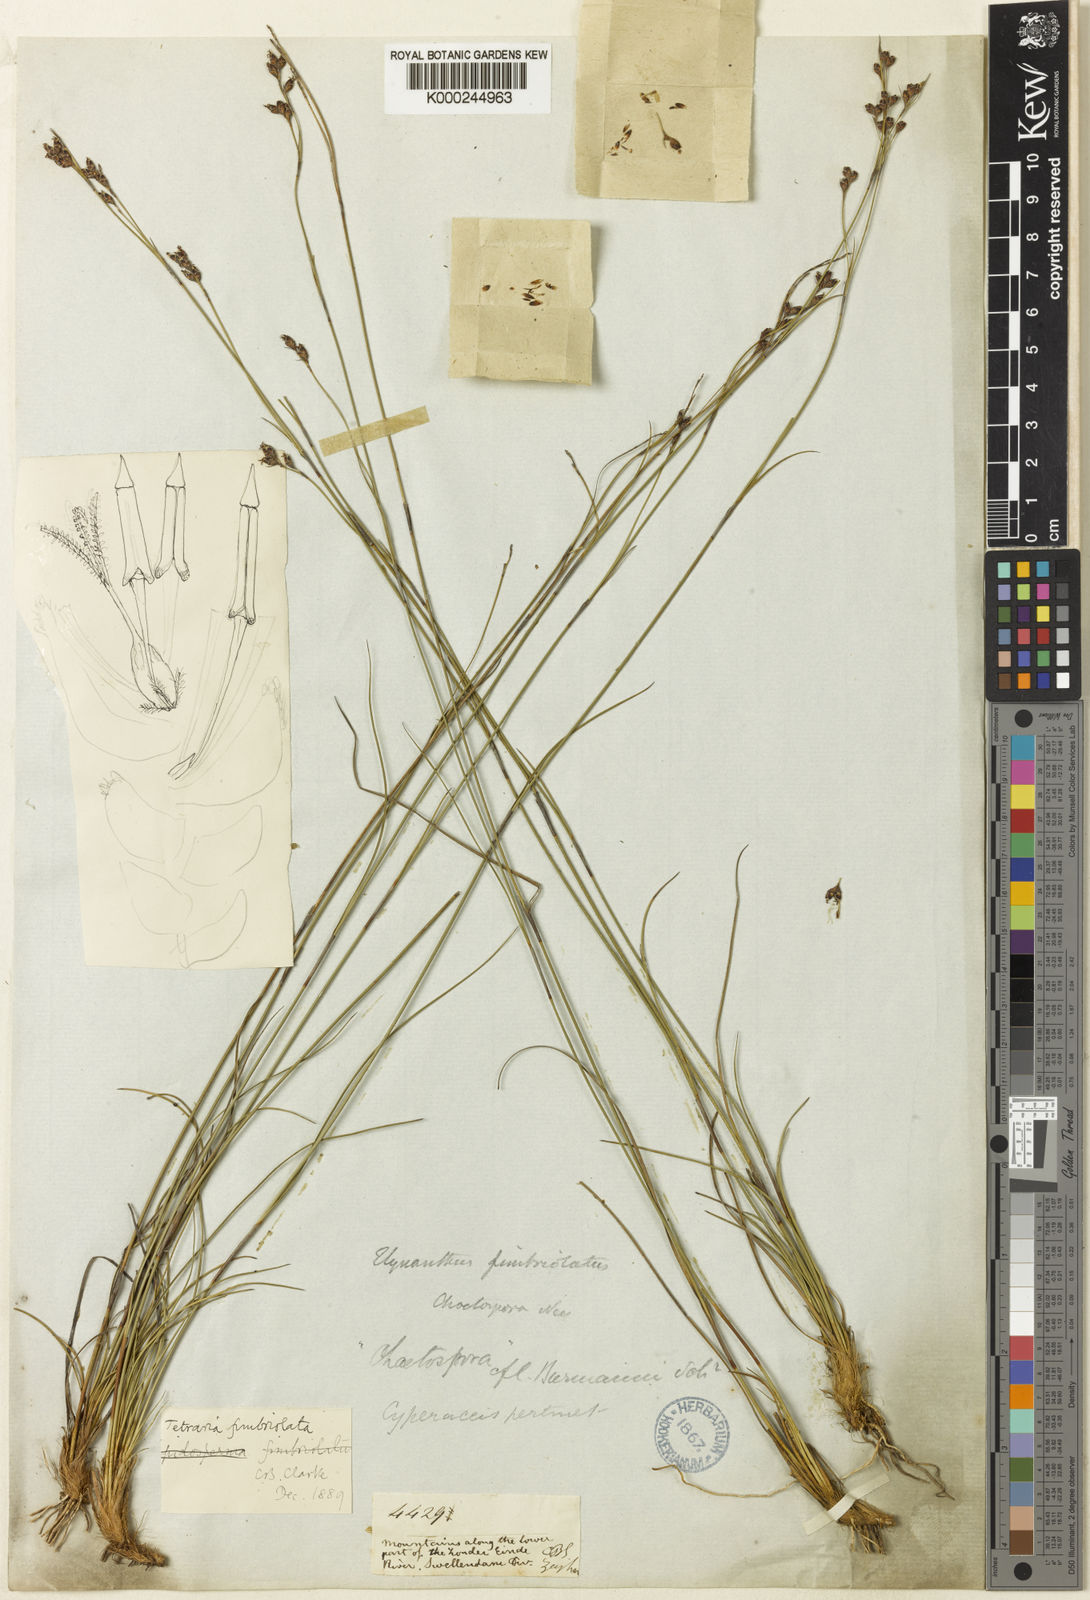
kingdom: Plantae
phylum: Tracheophyta
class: Liliopsida
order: Poales
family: Cyperaceae
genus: Tetraria
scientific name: Tetraria fimbriolata
